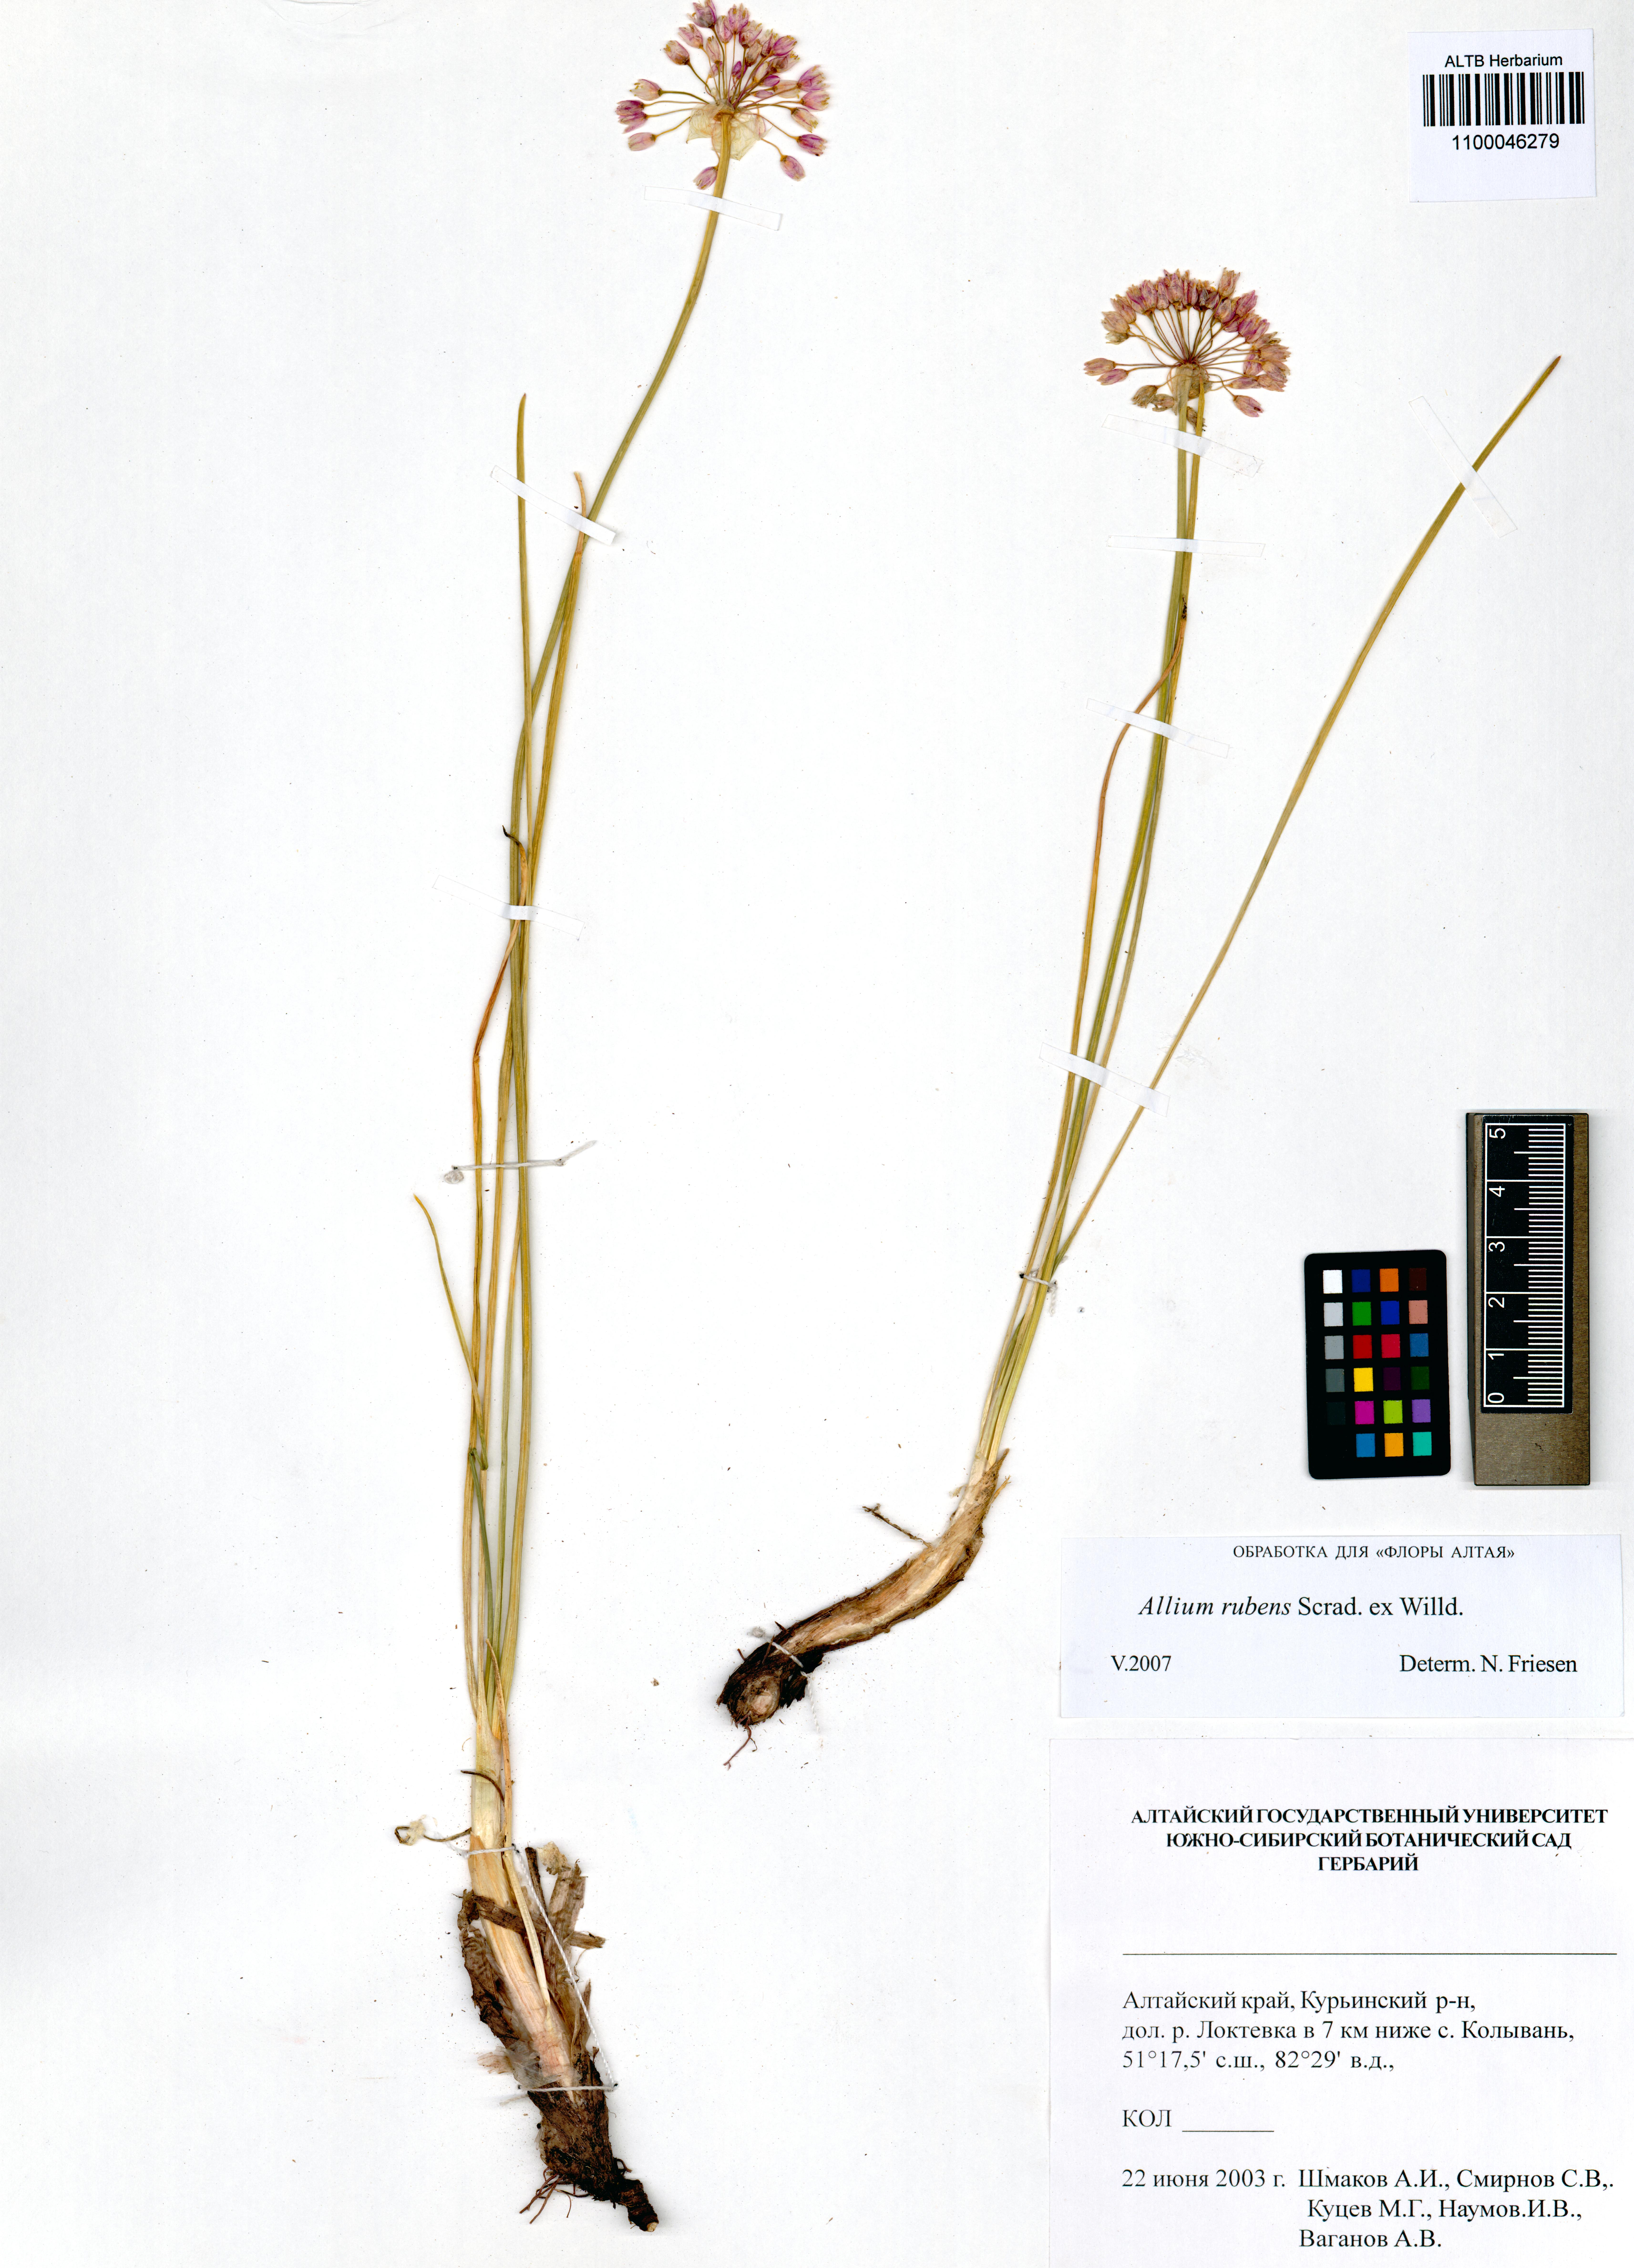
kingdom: Plantae
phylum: Tracheophyta
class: Liliopsida
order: Asparagales
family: Amaryllidaceae
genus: Allium
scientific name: Allium rubens
